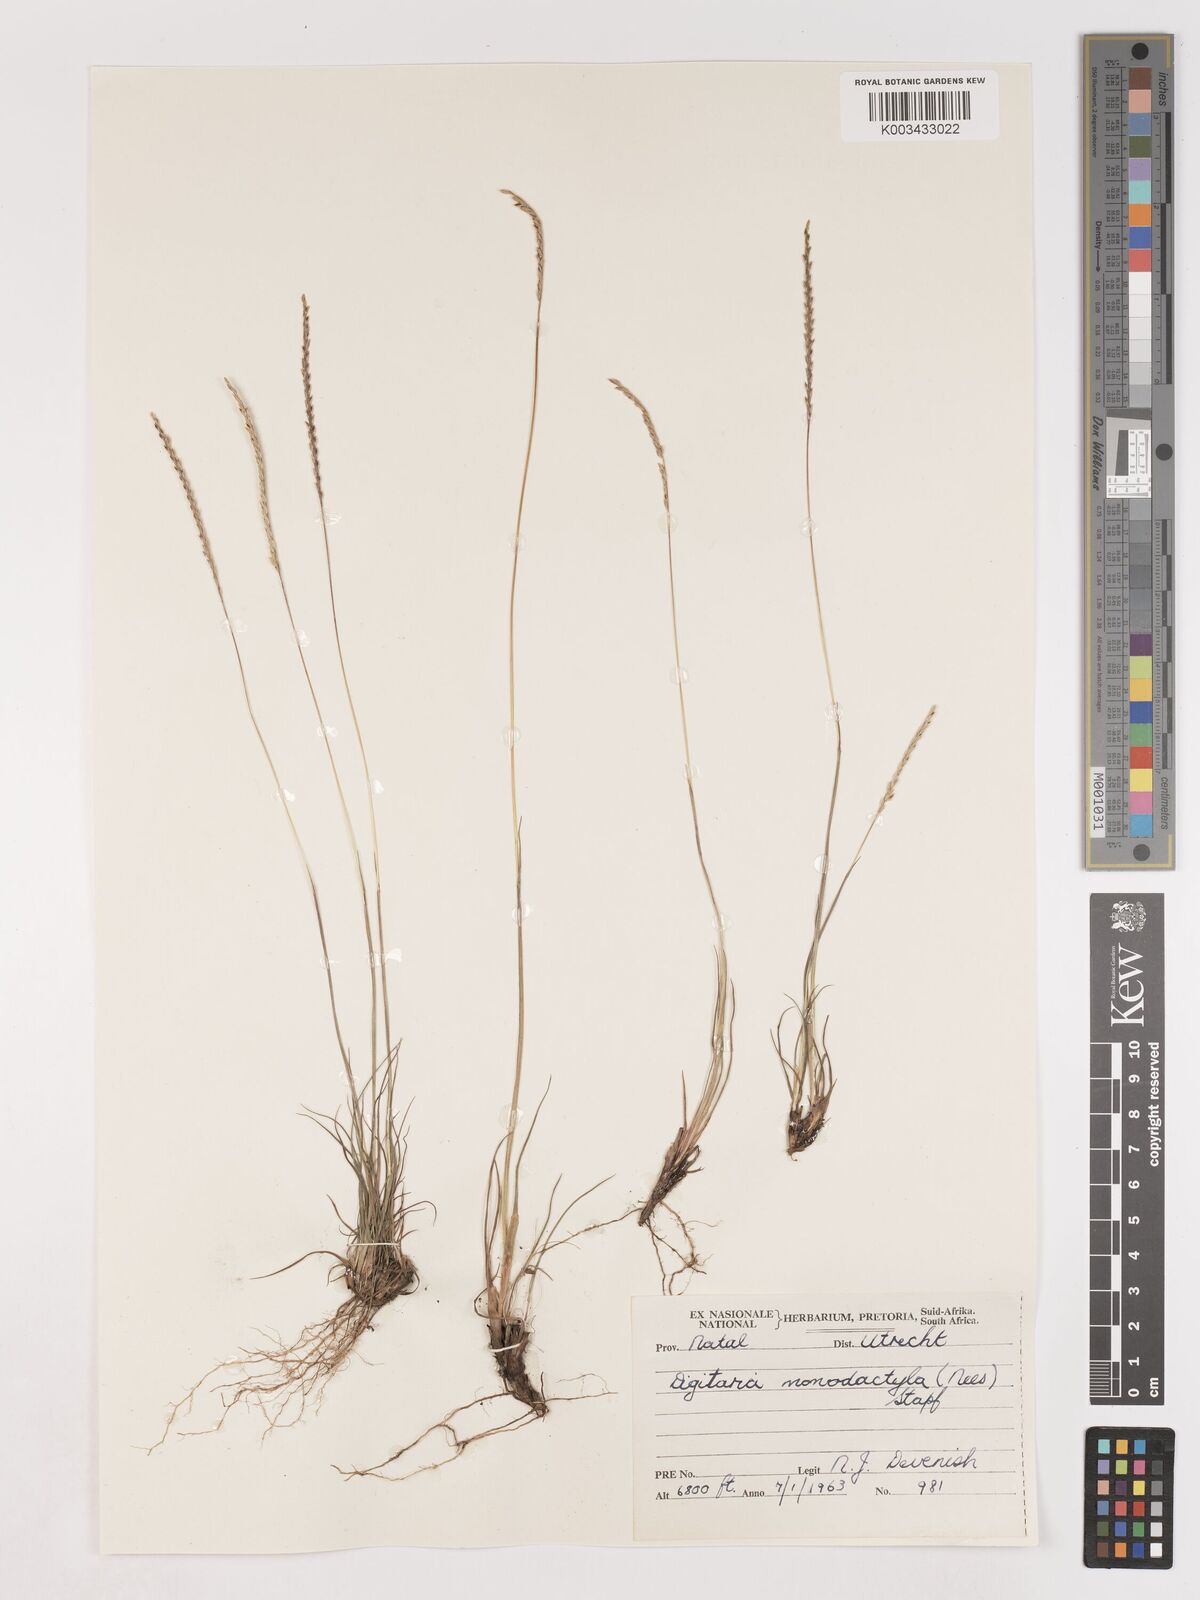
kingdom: Plantae
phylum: Tracheophyta
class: Liliopsida
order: Poales
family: Poaceae
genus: Digitaria
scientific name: Digitaria monodactyla
